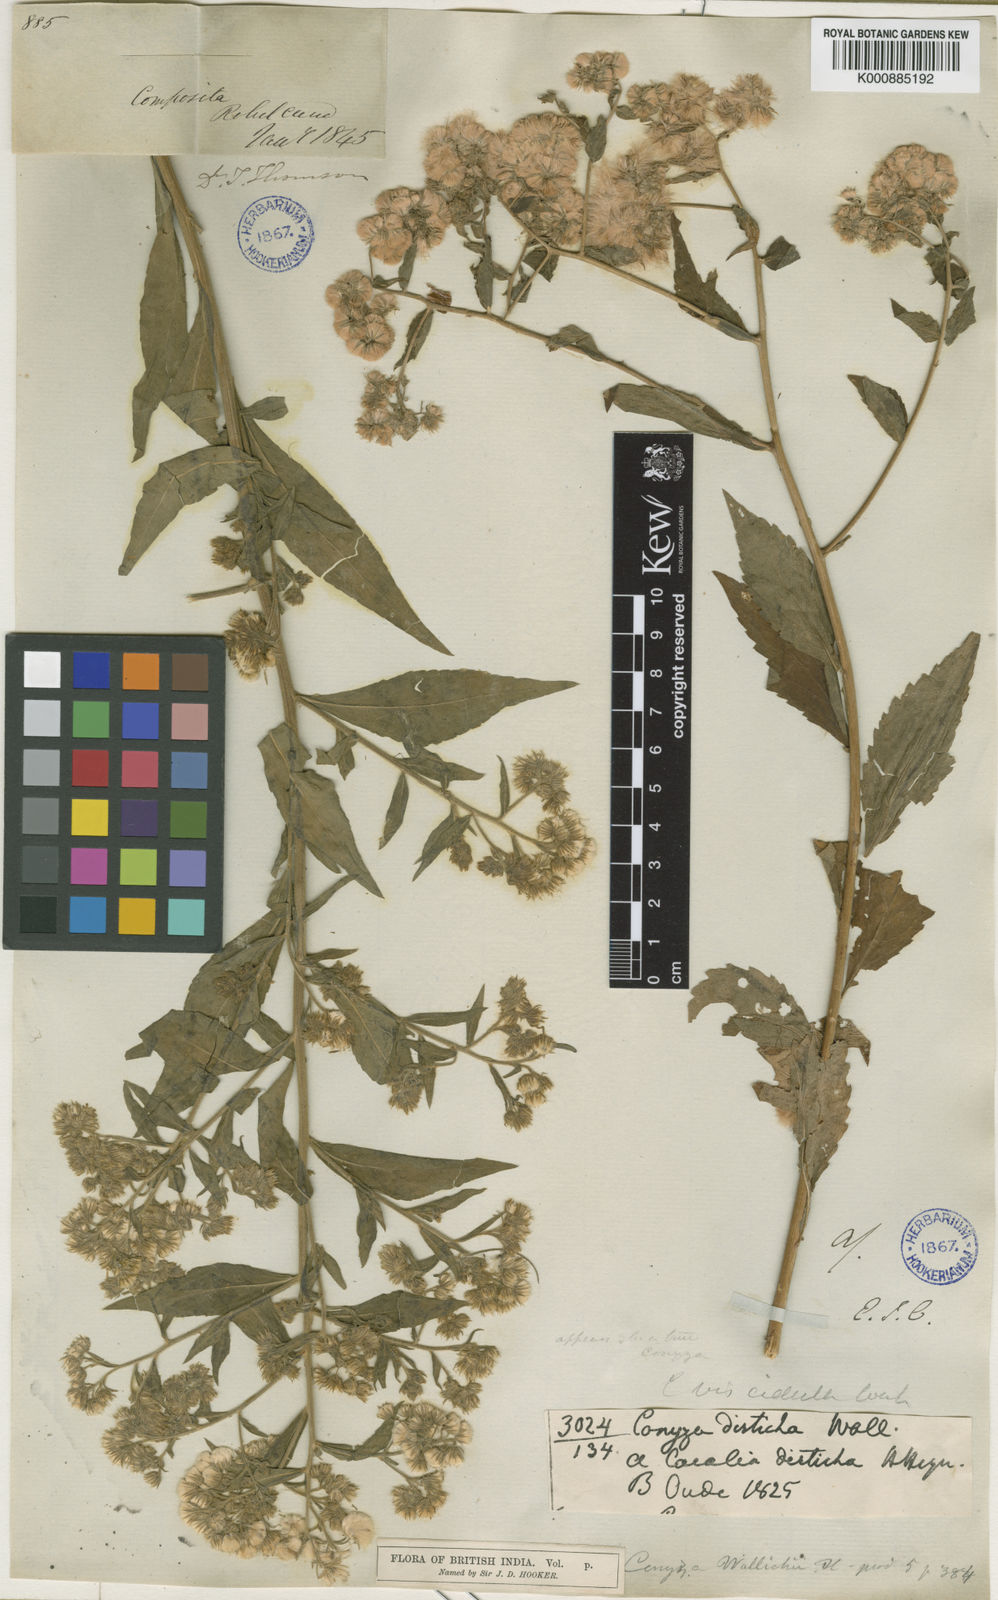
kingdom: Plantae
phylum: Tracheophyta
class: Magnoliopsida
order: Asterales
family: Asteraceae
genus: Nidorella
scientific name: Nidorella triloba
